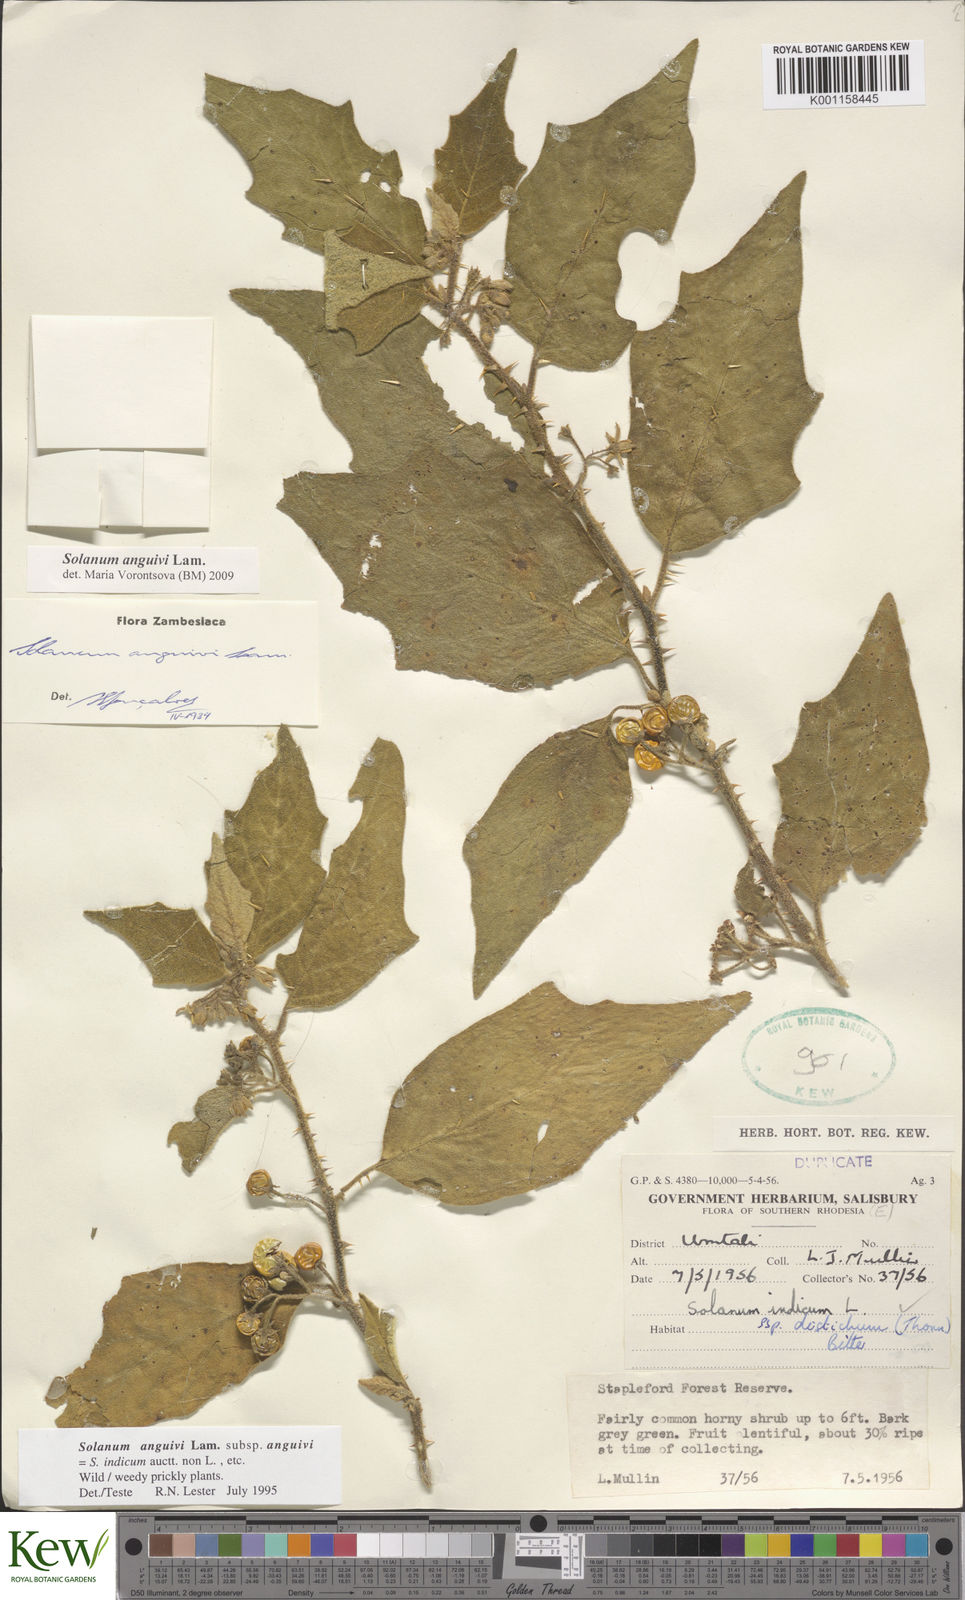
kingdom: Plantae
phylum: Tracheophyta
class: Magnoliopsida
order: Solanales
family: Solanaceae
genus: Solanum
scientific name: Solanum anguivi
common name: Forest bitterberry
